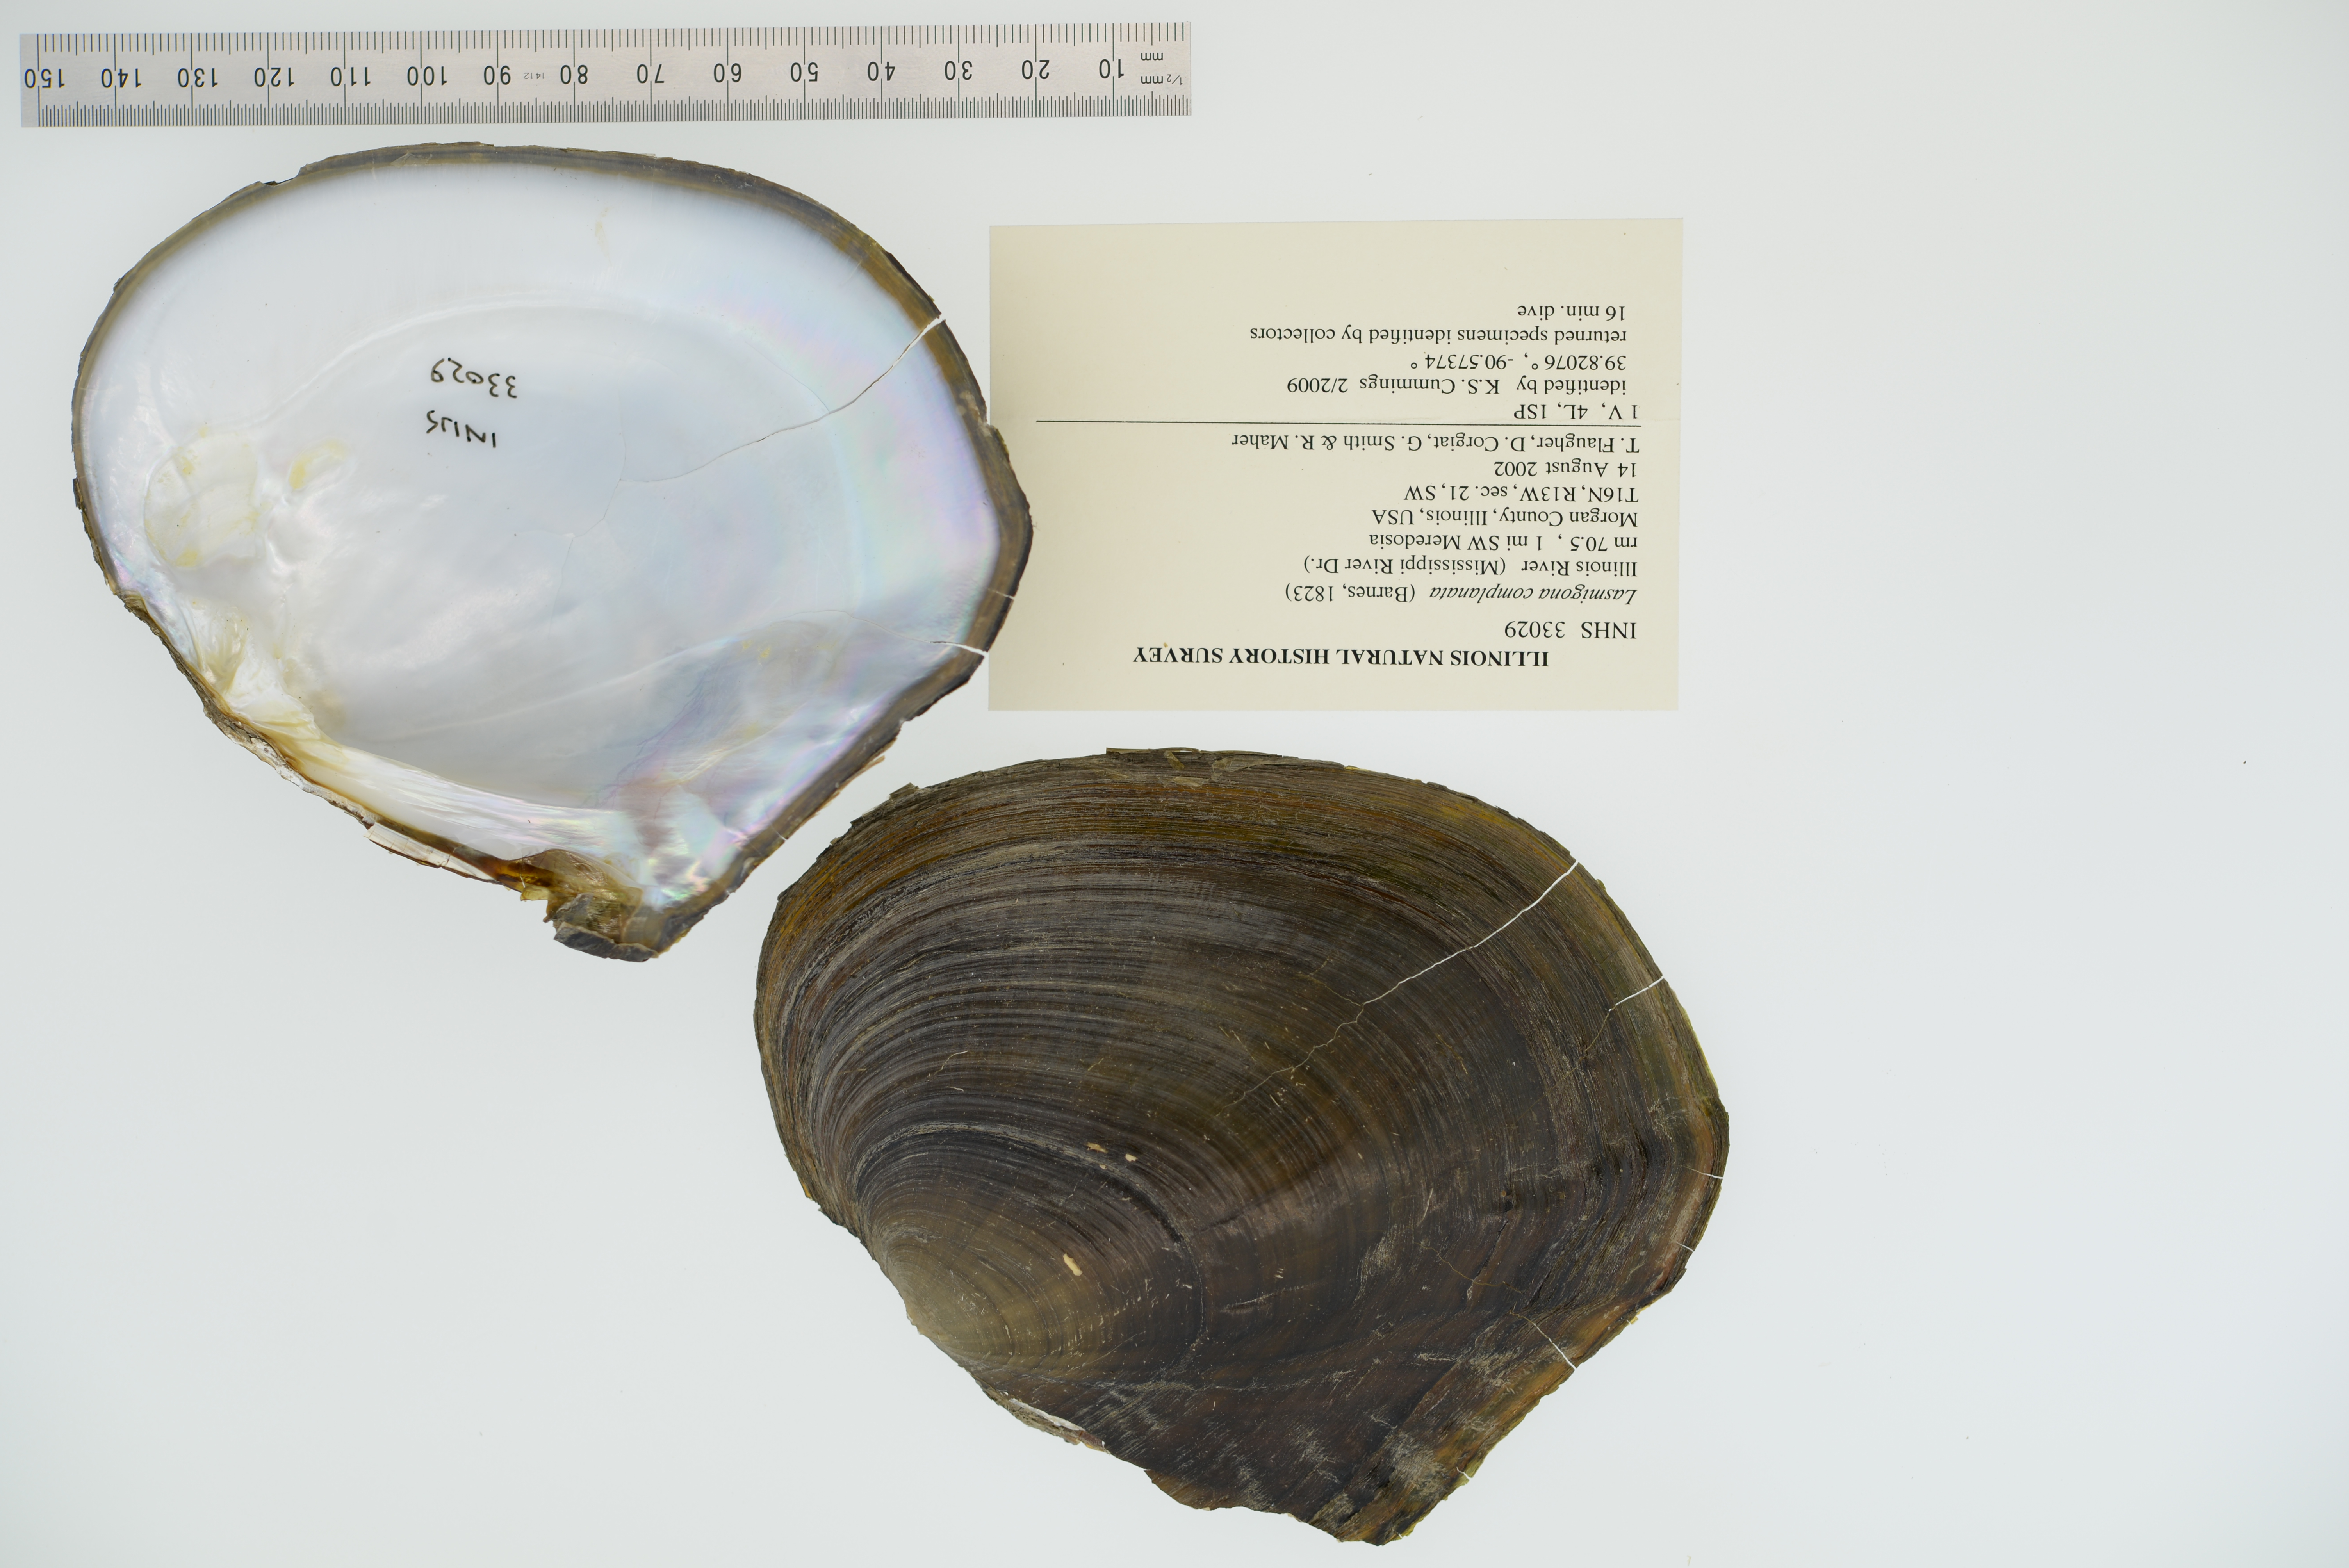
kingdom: Animalia
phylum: Mollusca
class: Bivalvia
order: Unionida
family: Unionidae
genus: Lasmigona
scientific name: Lasmigona complanata
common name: White heelsplitter
